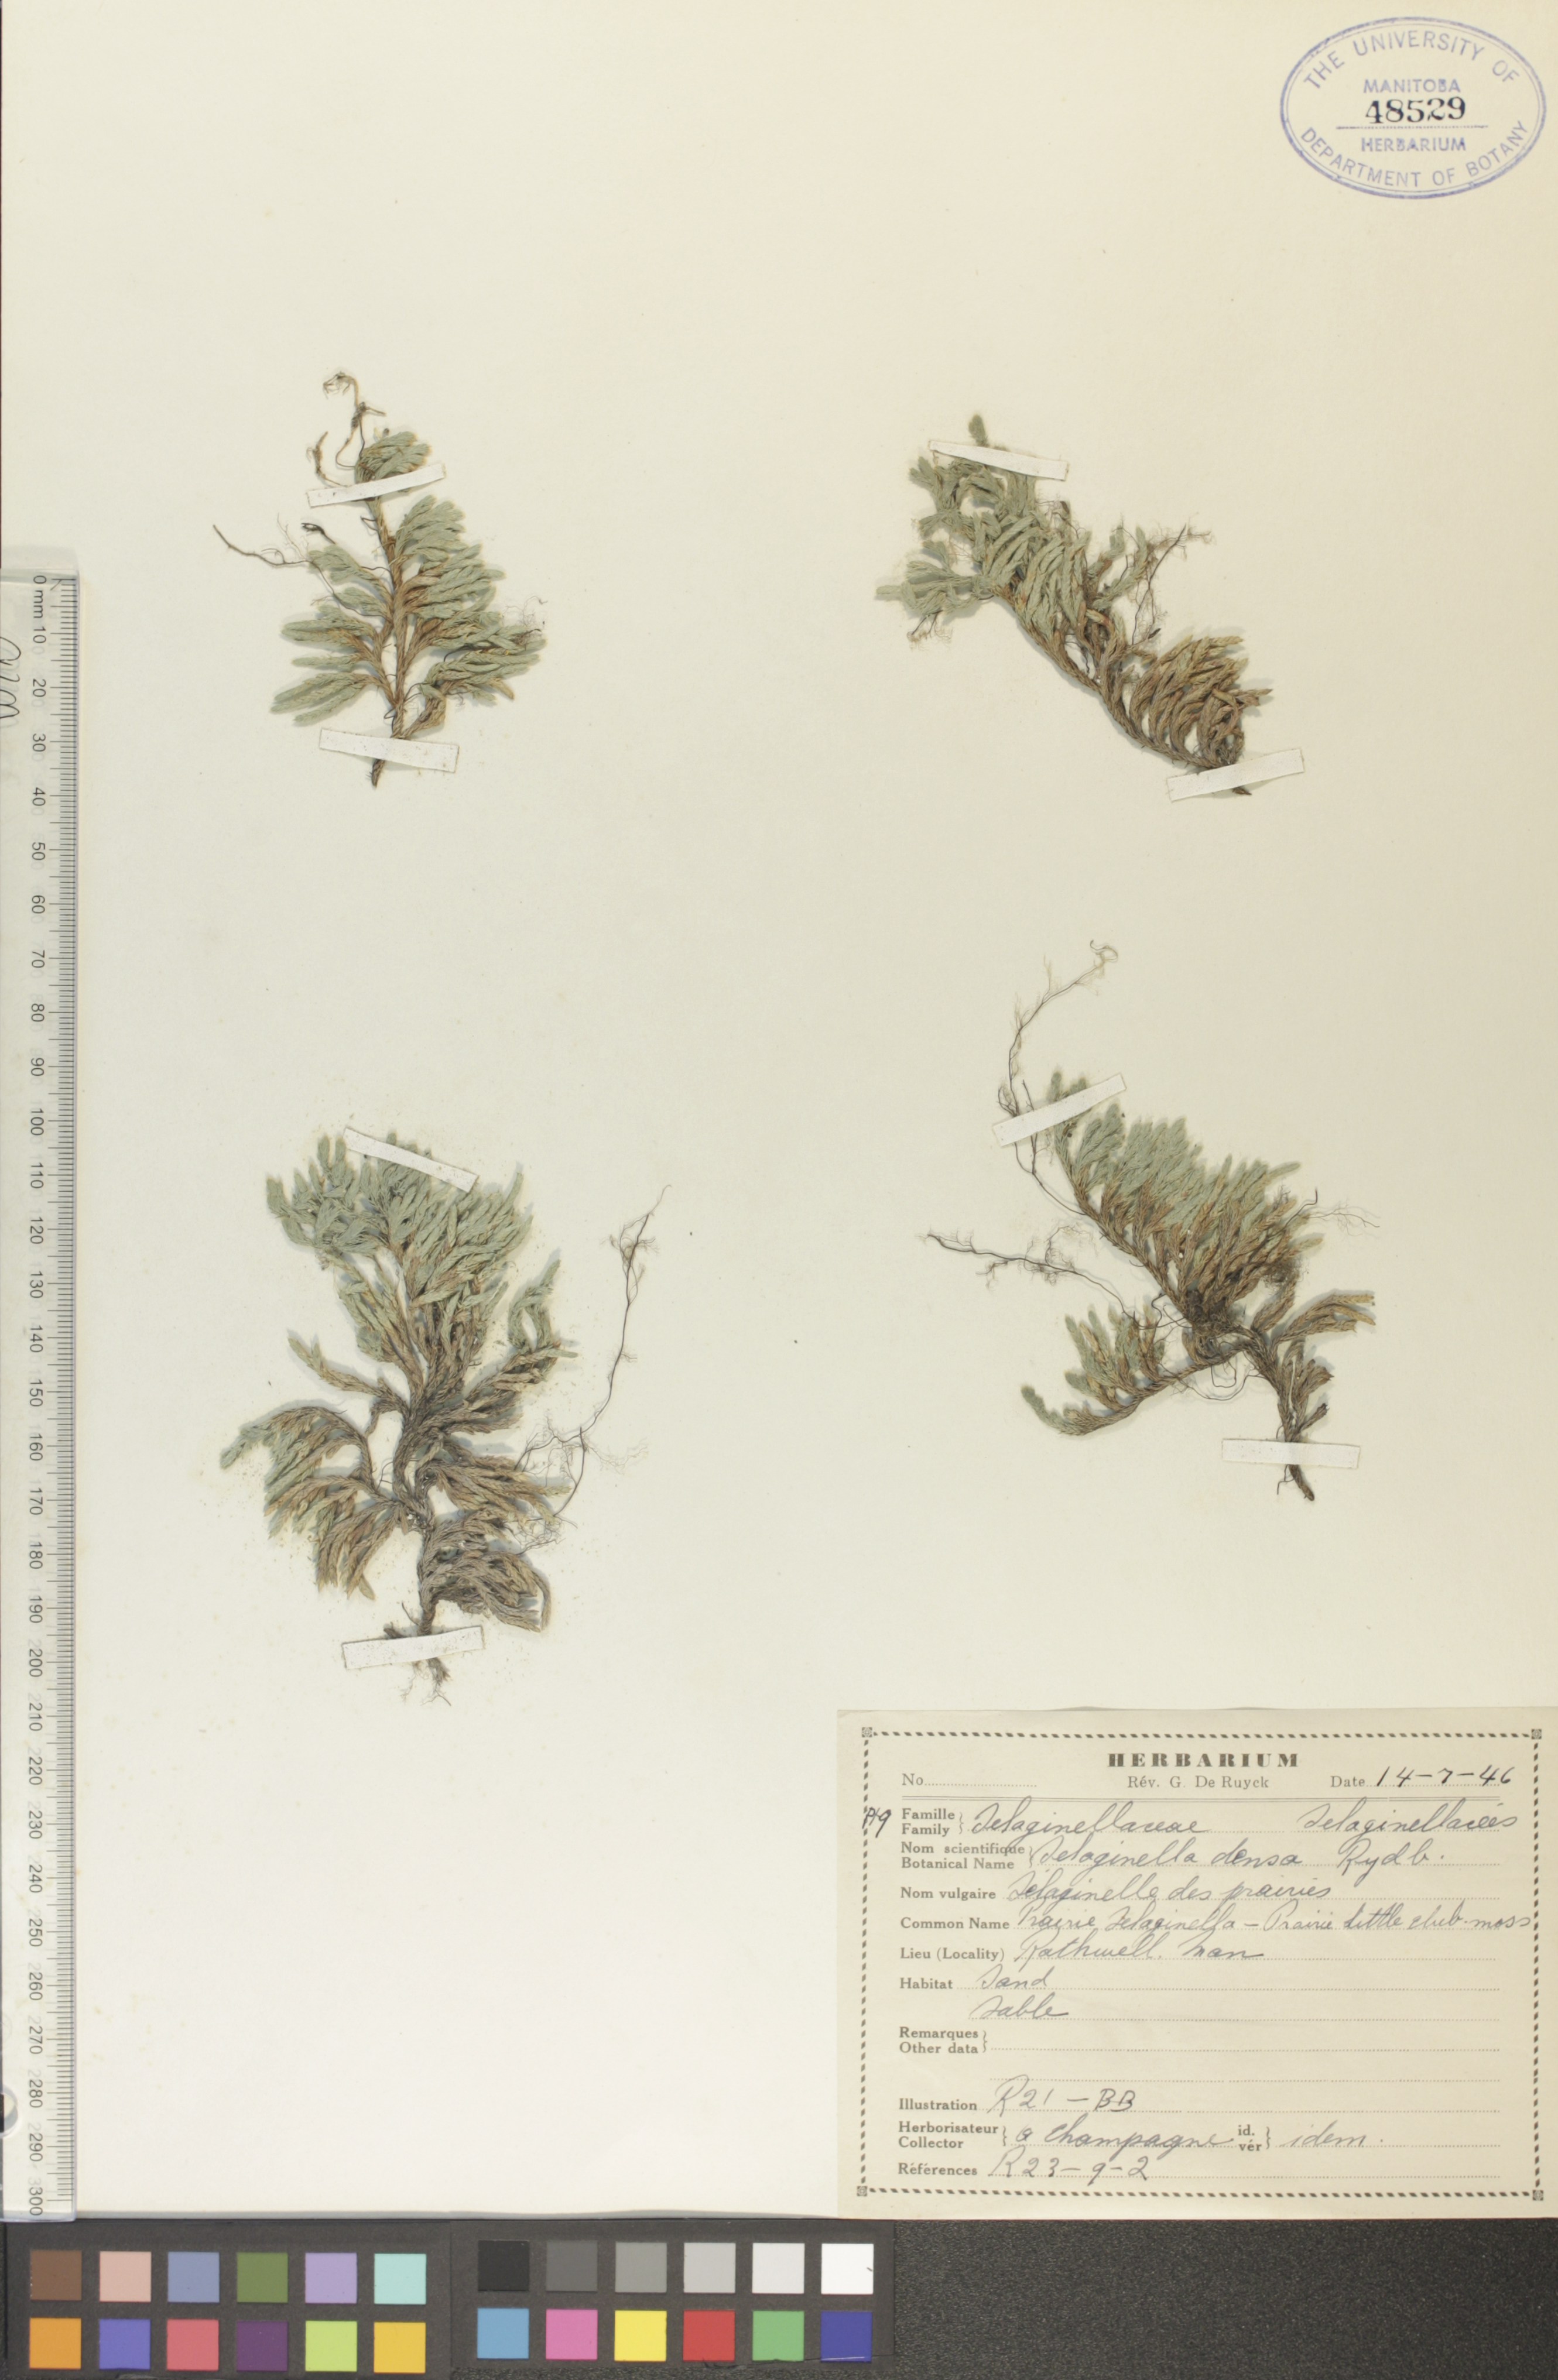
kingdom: Plantae
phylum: Tracheophyta
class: Lycopodiopsida
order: Selaginellales
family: Selaginellaceae
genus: Selaginella
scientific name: Selaginella densa
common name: Mountain spike-moss
